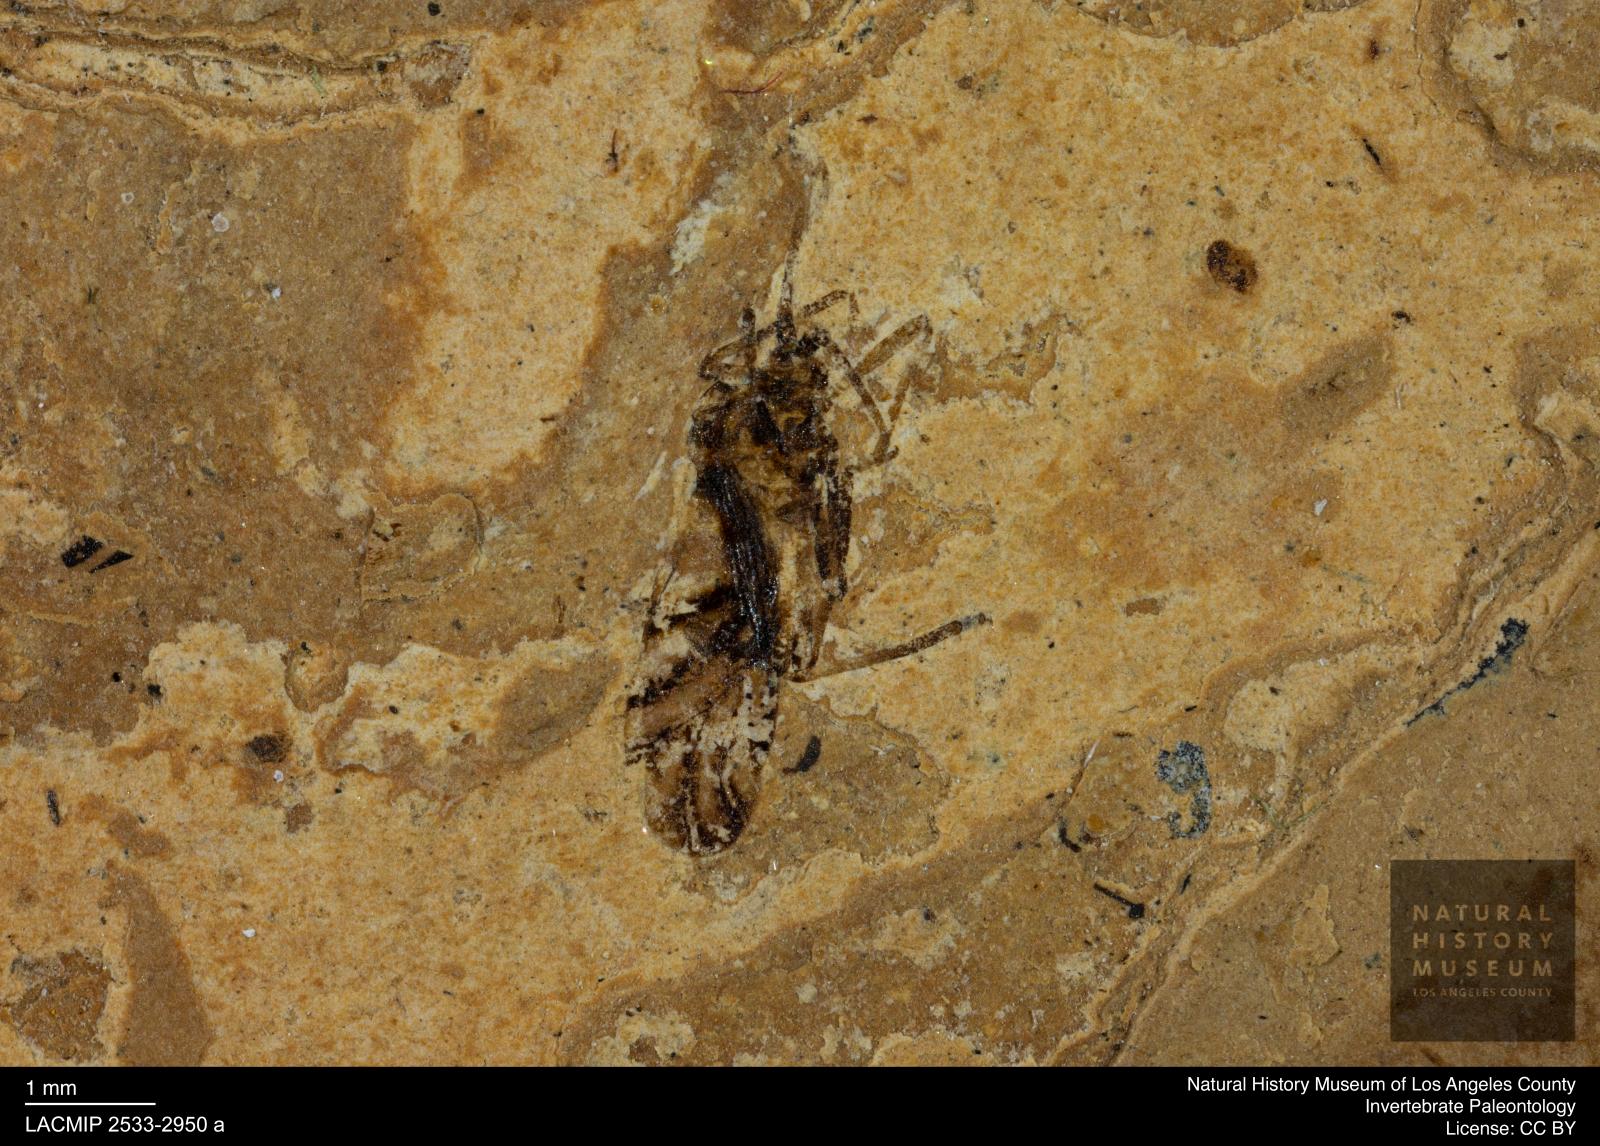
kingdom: Animalia
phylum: Arthropoda
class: Insecta
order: Hemiptera
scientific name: Hemiptera
